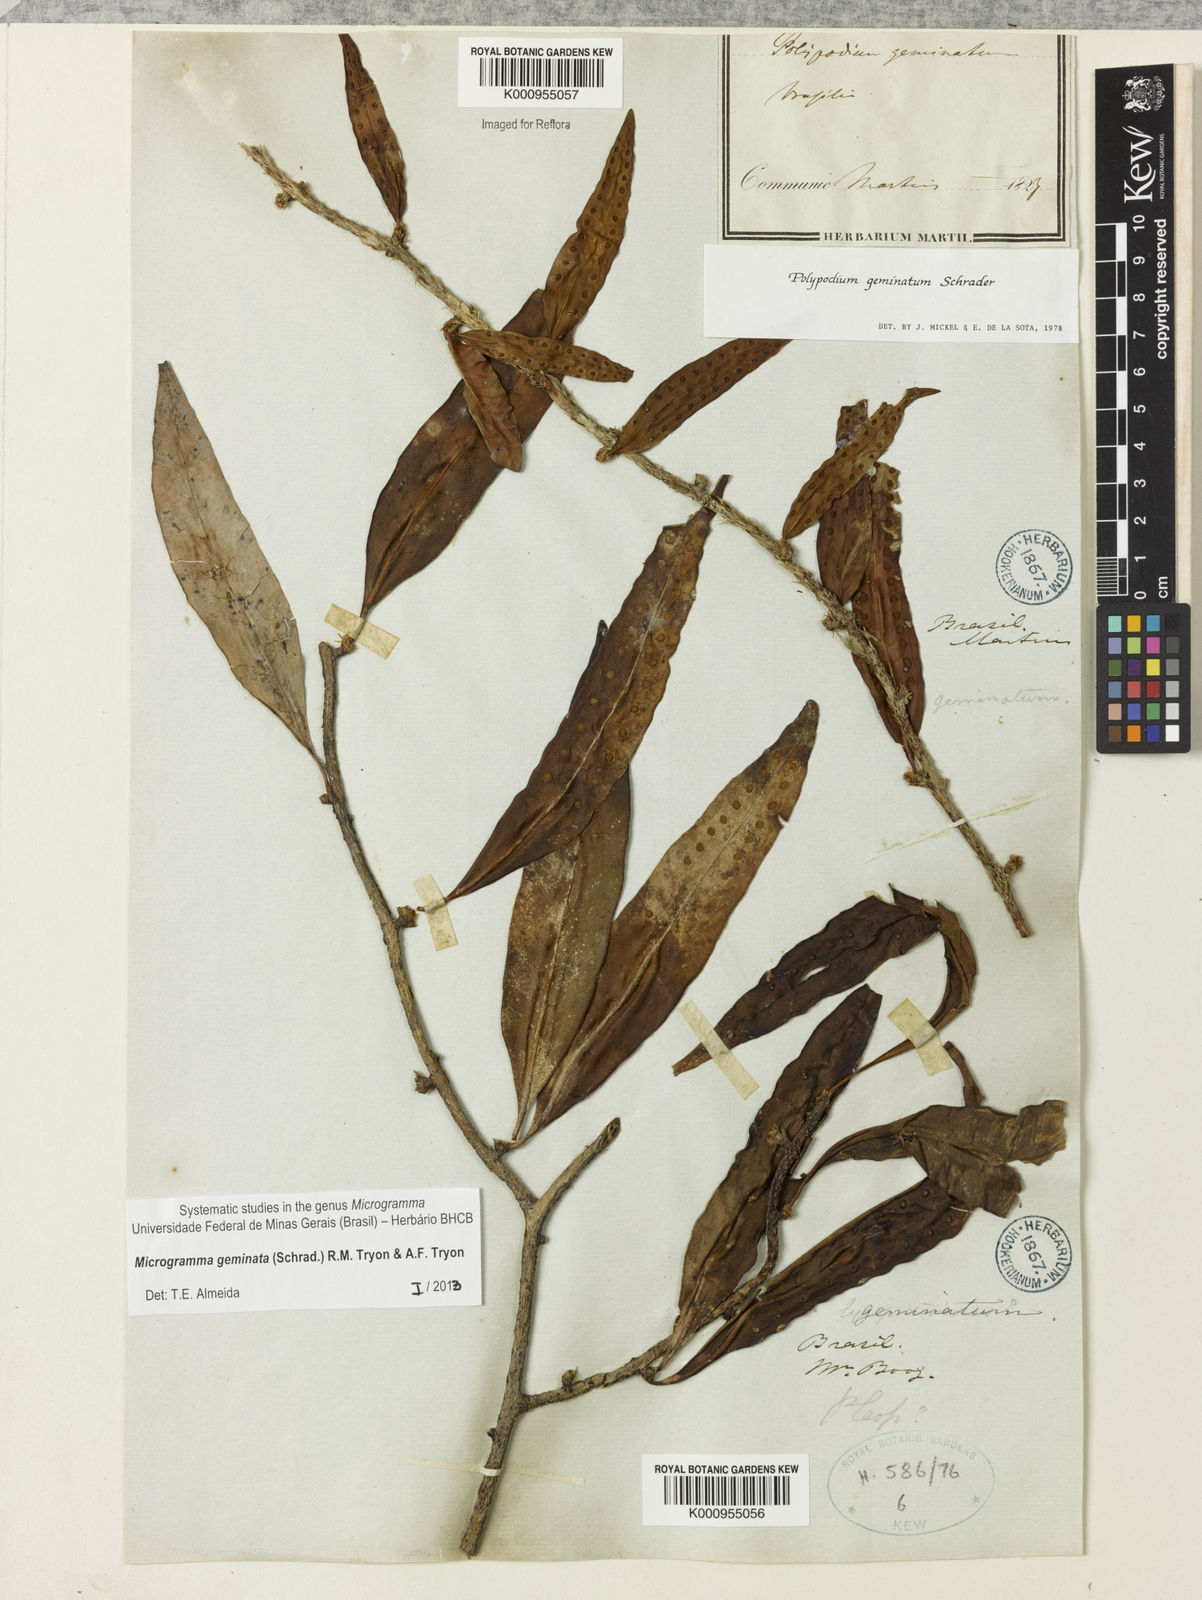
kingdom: Plantae
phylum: Tracheophyta
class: Polypodiopsida
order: Polypodiales
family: Polypodiaceae
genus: Microgramma
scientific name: Microgramma geminata
